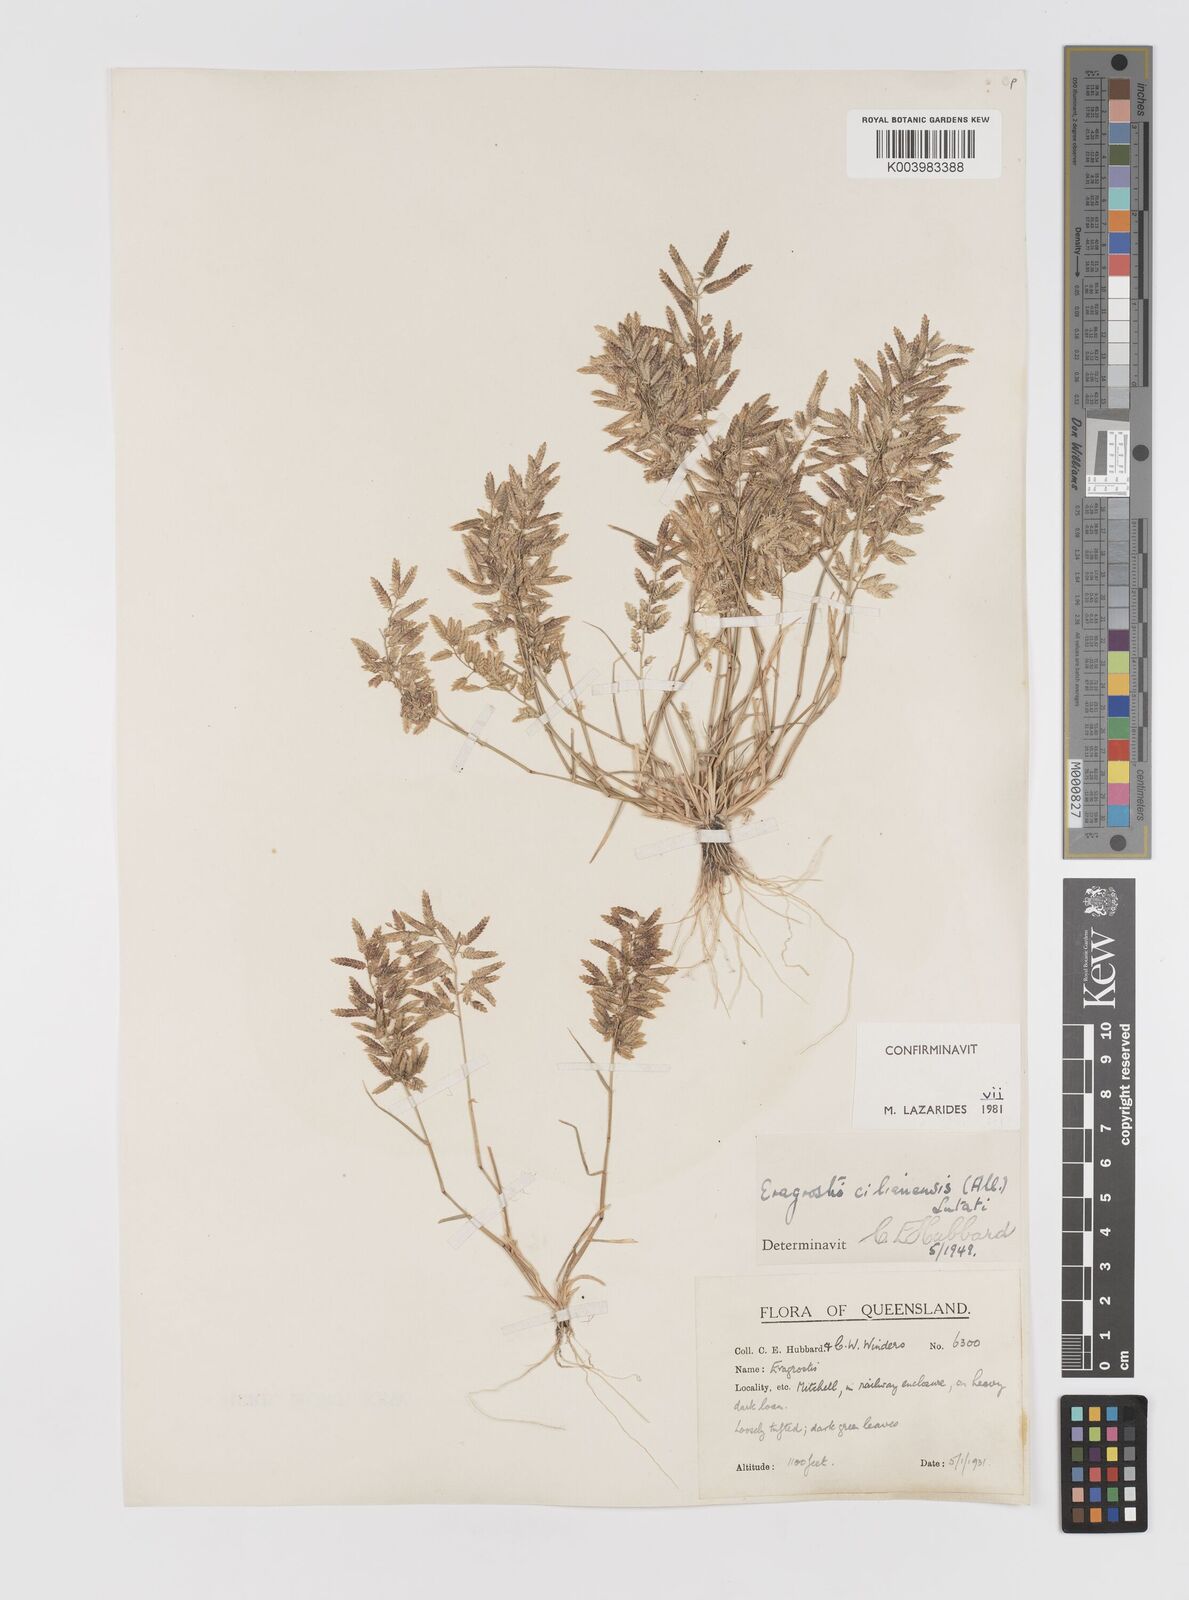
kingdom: Plantae
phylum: Tracheophyta
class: Liliopsida
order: Poales
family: Poaceae
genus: Eragrostis
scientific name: Eragrostis cilianensis
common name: Stinkgrass
